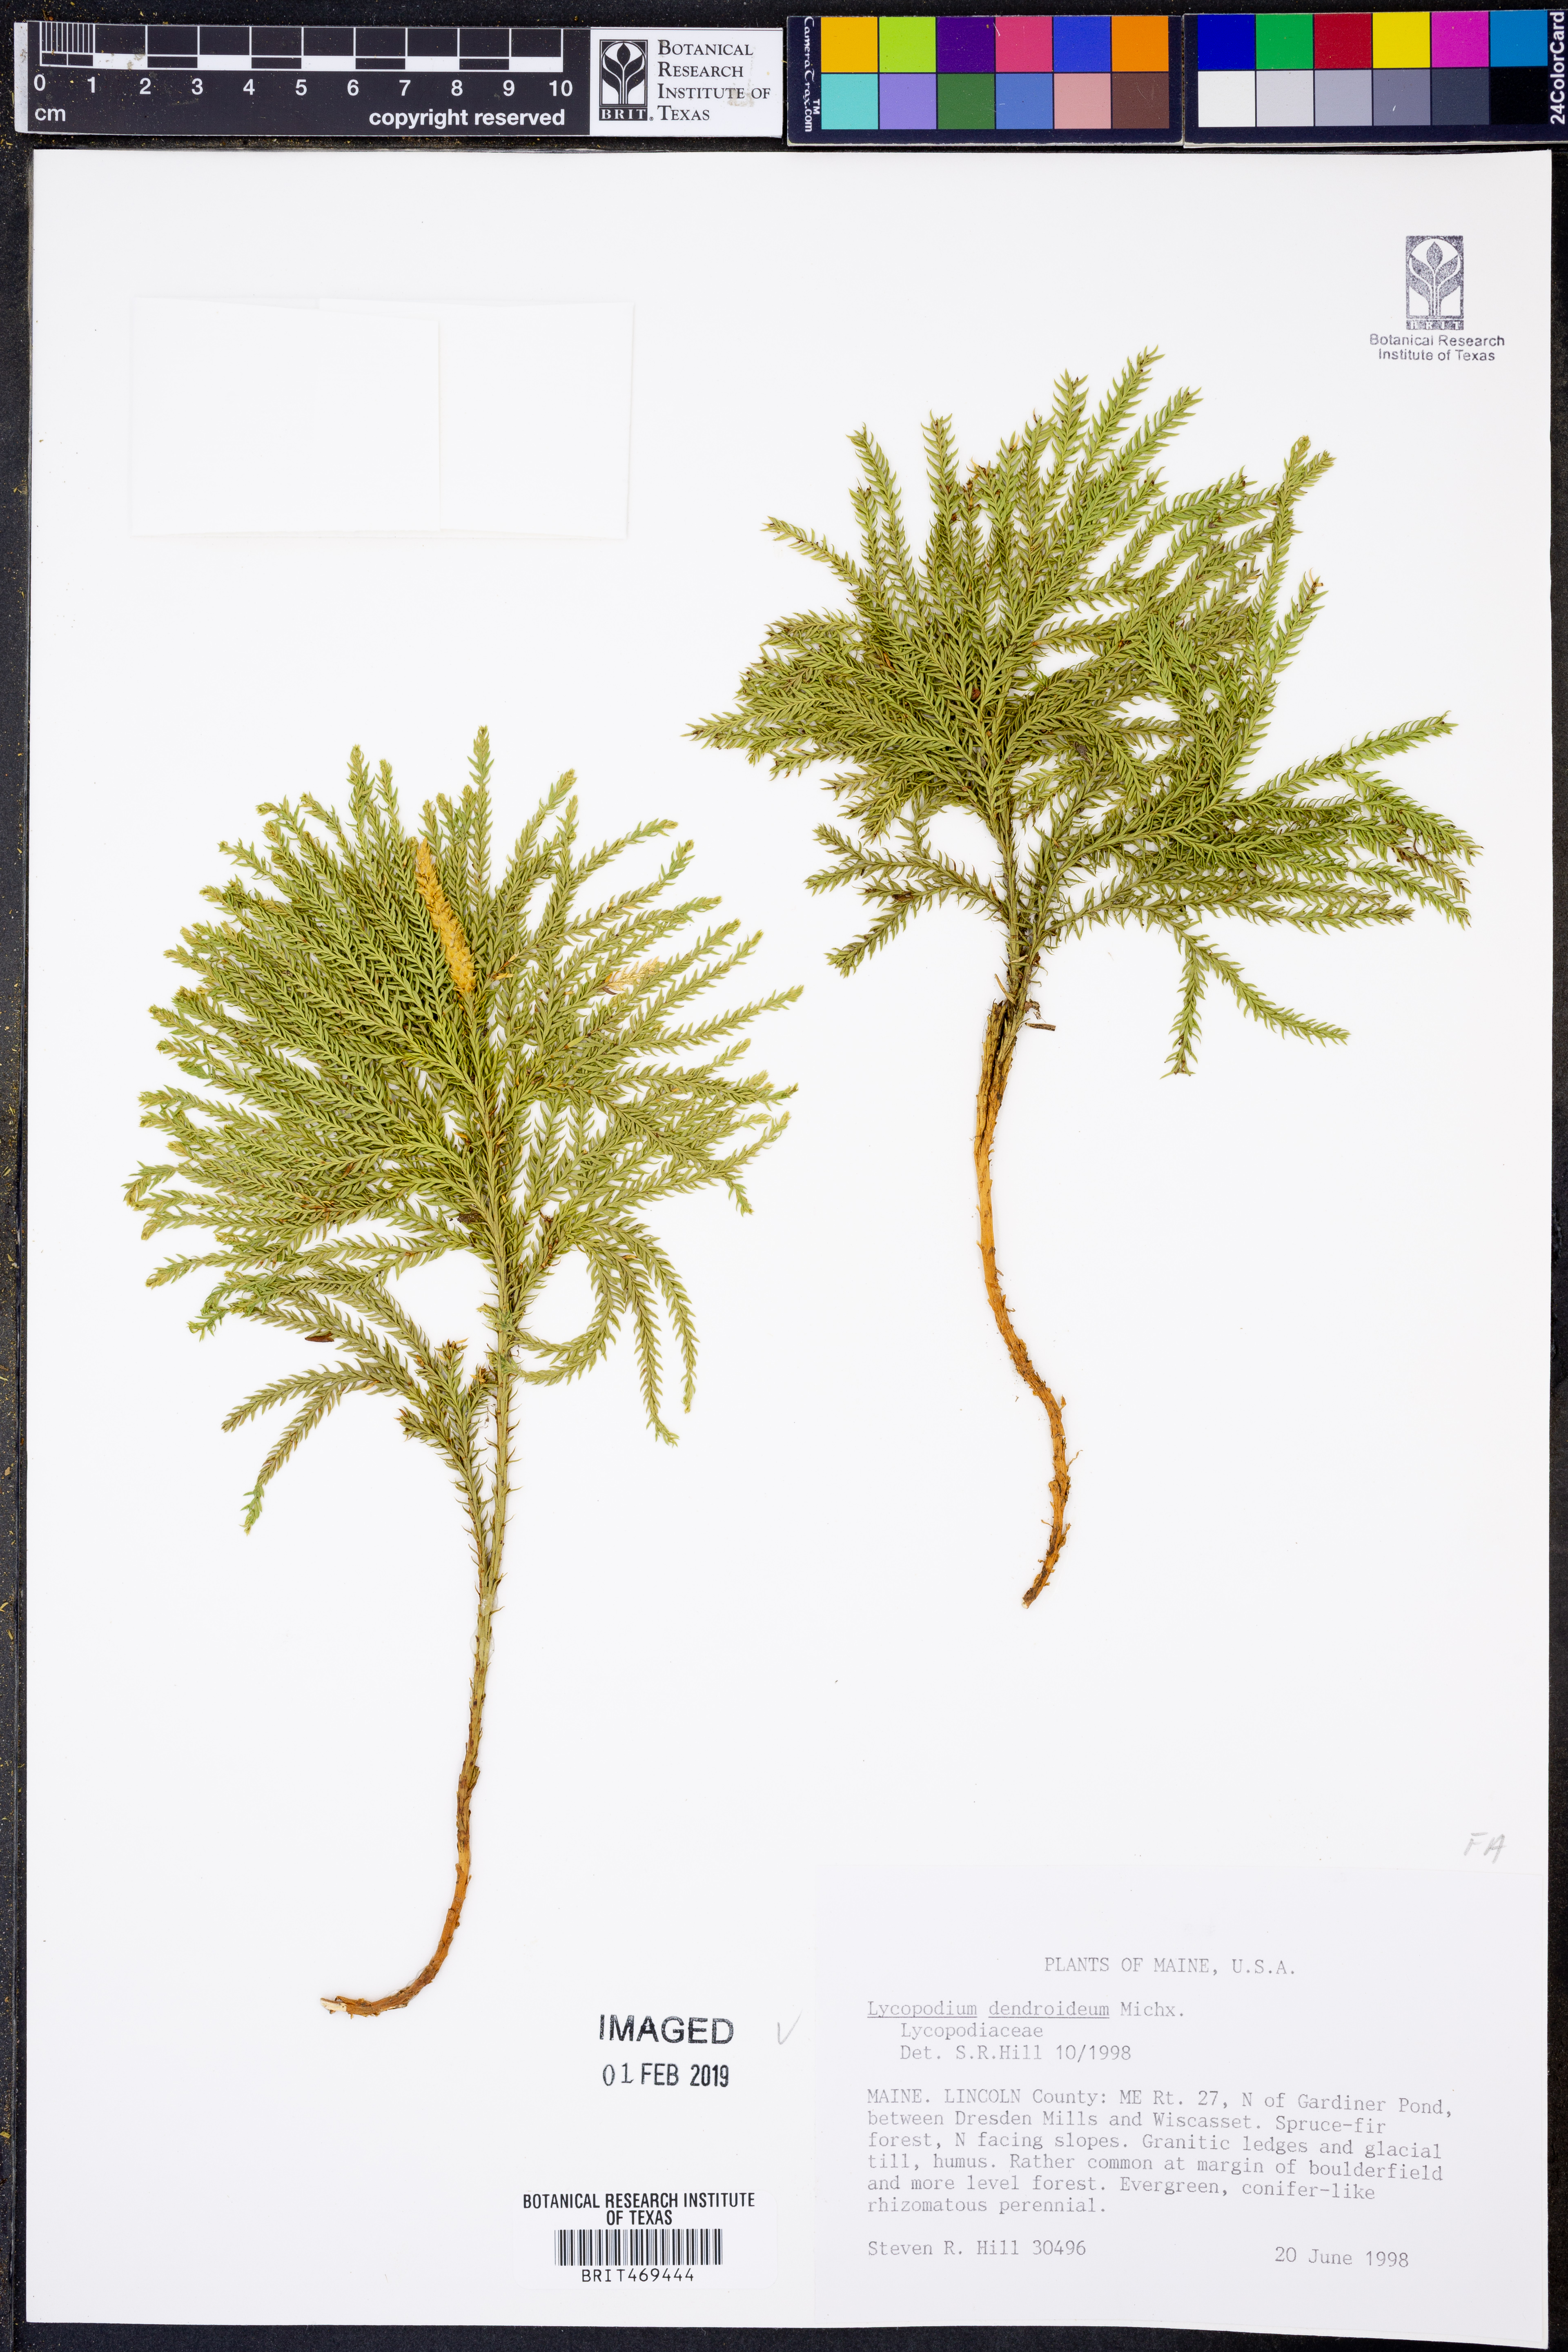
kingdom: Plantae
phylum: Tracheophyta
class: Lycopodiopsida
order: Lycopodiales
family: Lycopodiaceae
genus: Dendrolycopodium
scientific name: Dendrolycopodium dendroideum
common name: Northern tree-clubmoss
